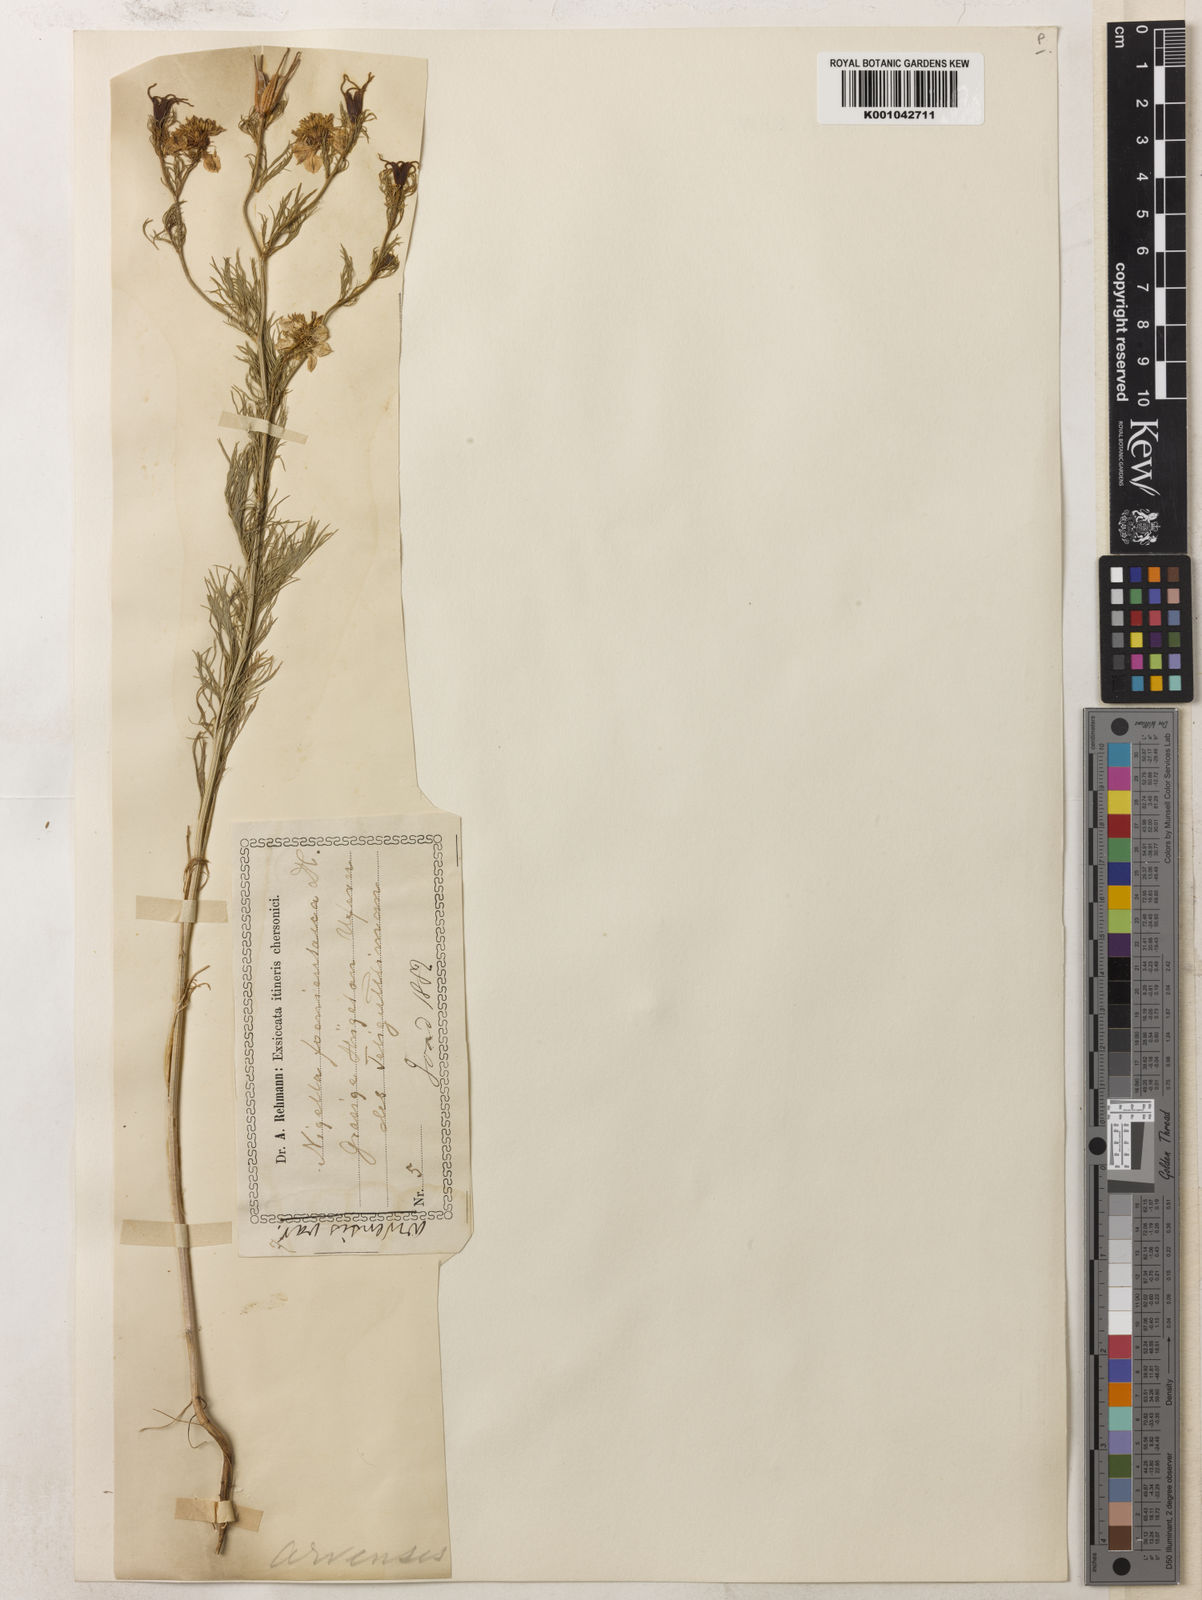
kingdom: Plantae
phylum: Tracheophyta
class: Magnoliopsida
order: Ranunculales
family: Ranunculaceae
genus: Nigella
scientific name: Nigella arvensis
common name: Wild fennel-flower
